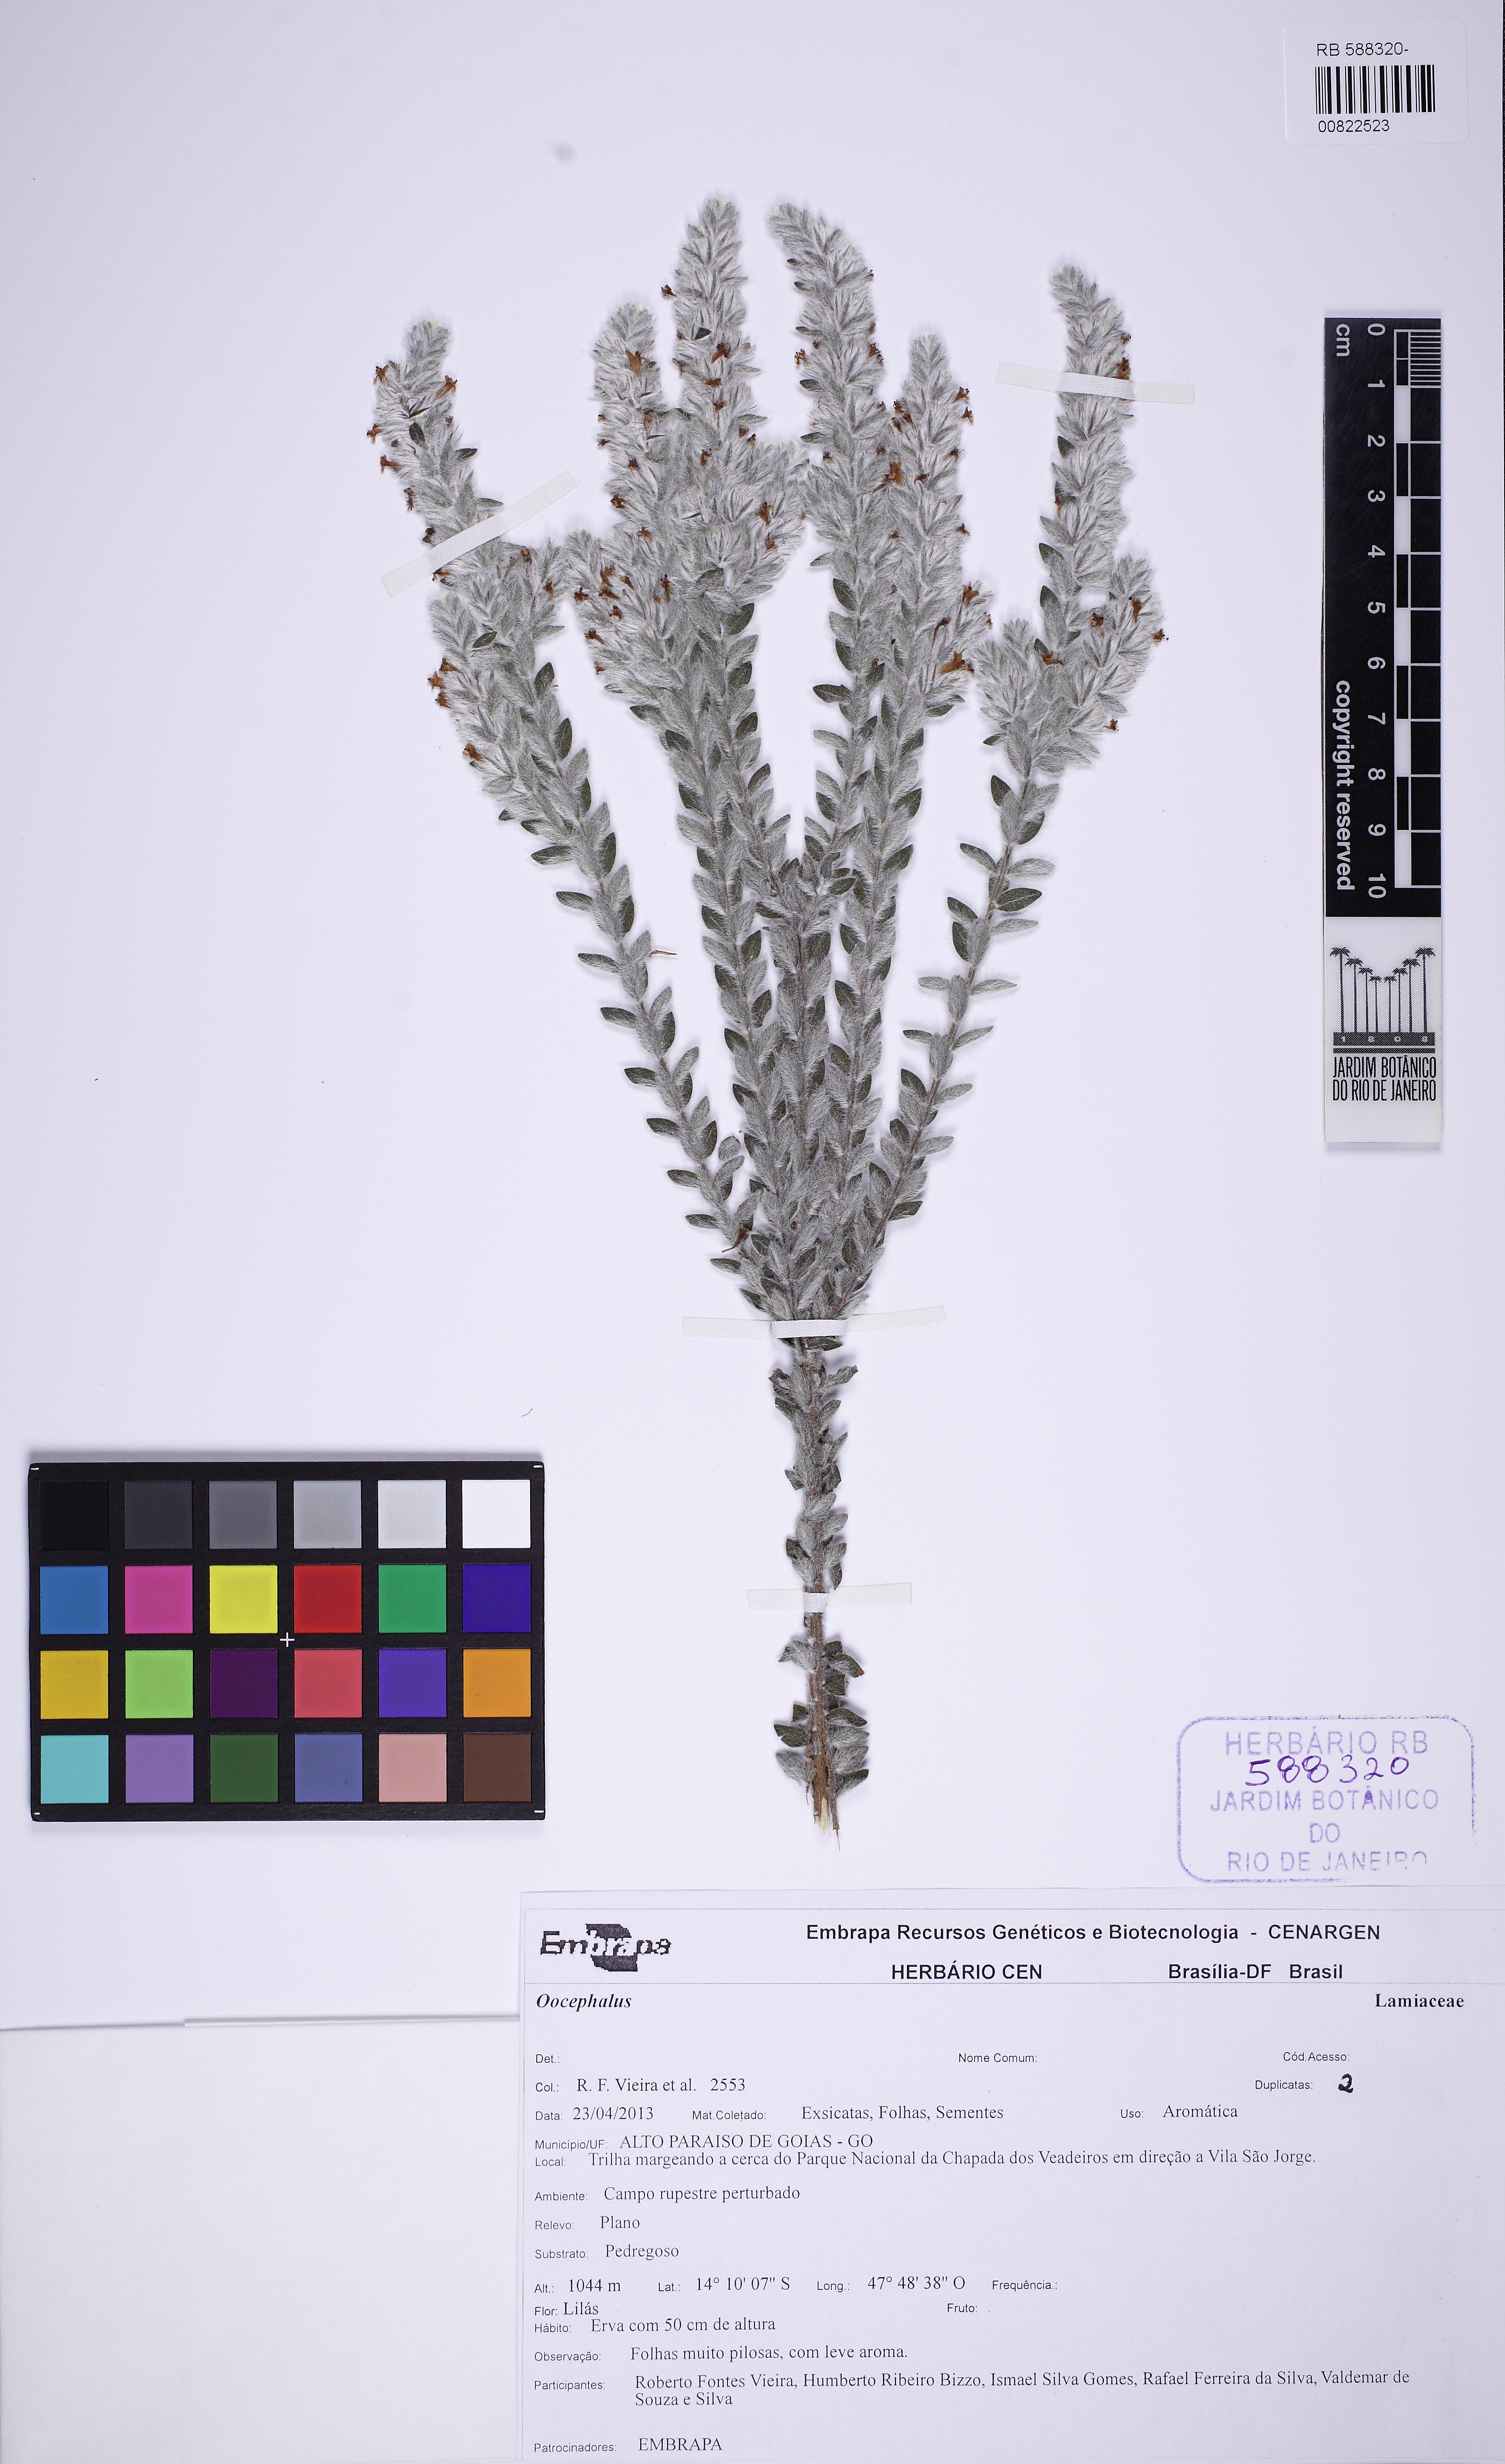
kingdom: Plantae
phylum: Tracheophyta
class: Magnoliopsida
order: Lamiales
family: Lamiaceae
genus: Oocephalus
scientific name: Oocephalus
